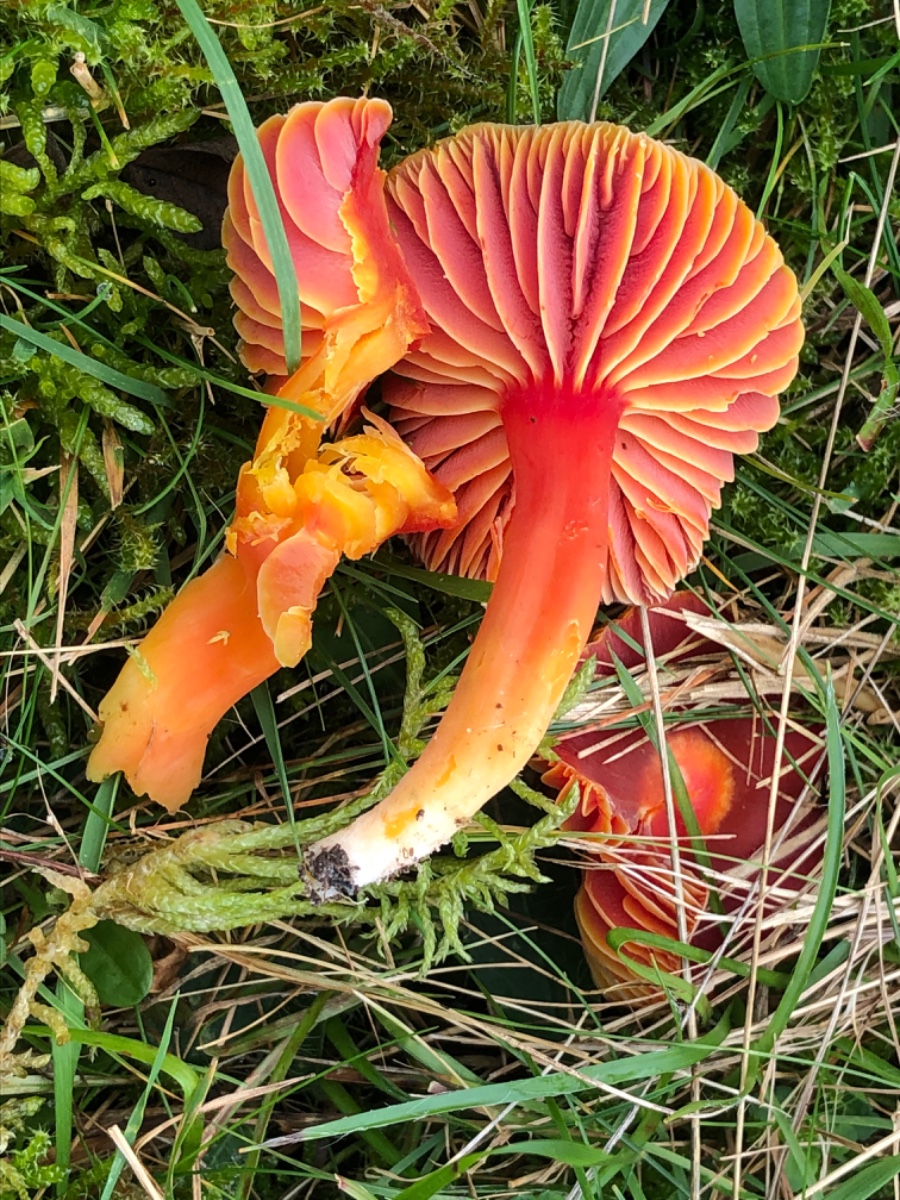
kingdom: Fungi
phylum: Basidiomycota
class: Agaricomycetes
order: Agaricales
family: Hygrophoraceae
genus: Hygrocybe
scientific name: Hygrocybe coccinea
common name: cinnober-vokshat
